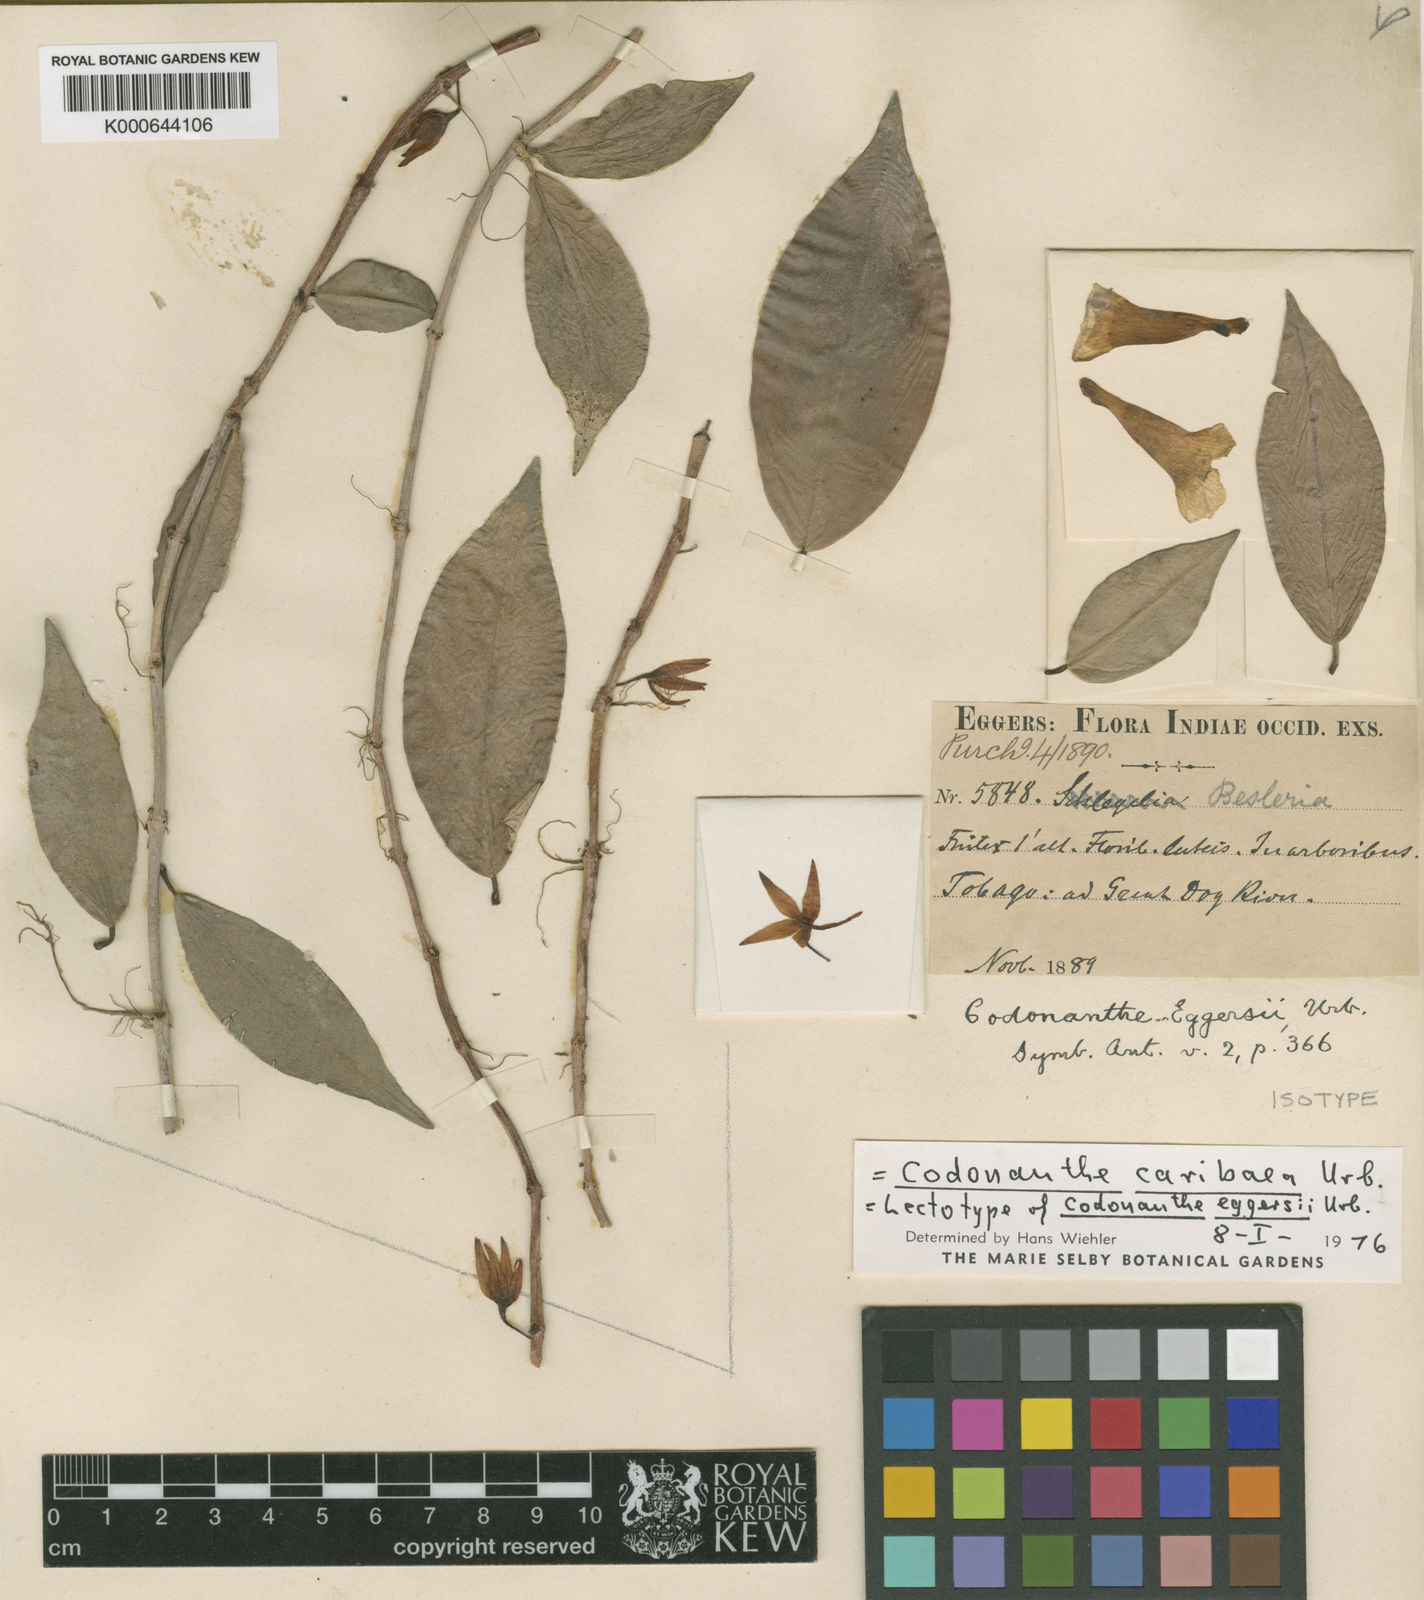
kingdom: Plantae
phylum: Tracheophyta
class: Magnoliopsida
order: Lamiales
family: Gesneriaceae
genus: Codonanthopsis
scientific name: Codonanthopsis caribaea
